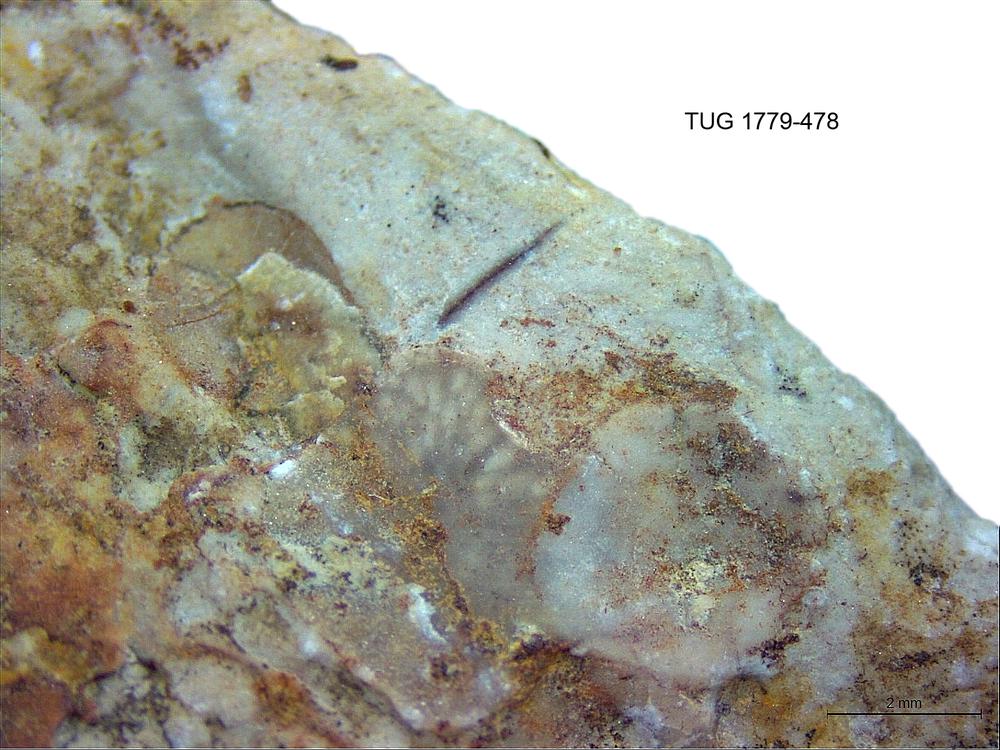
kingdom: Animalia
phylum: Bryozoa
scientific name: Bryozoa
